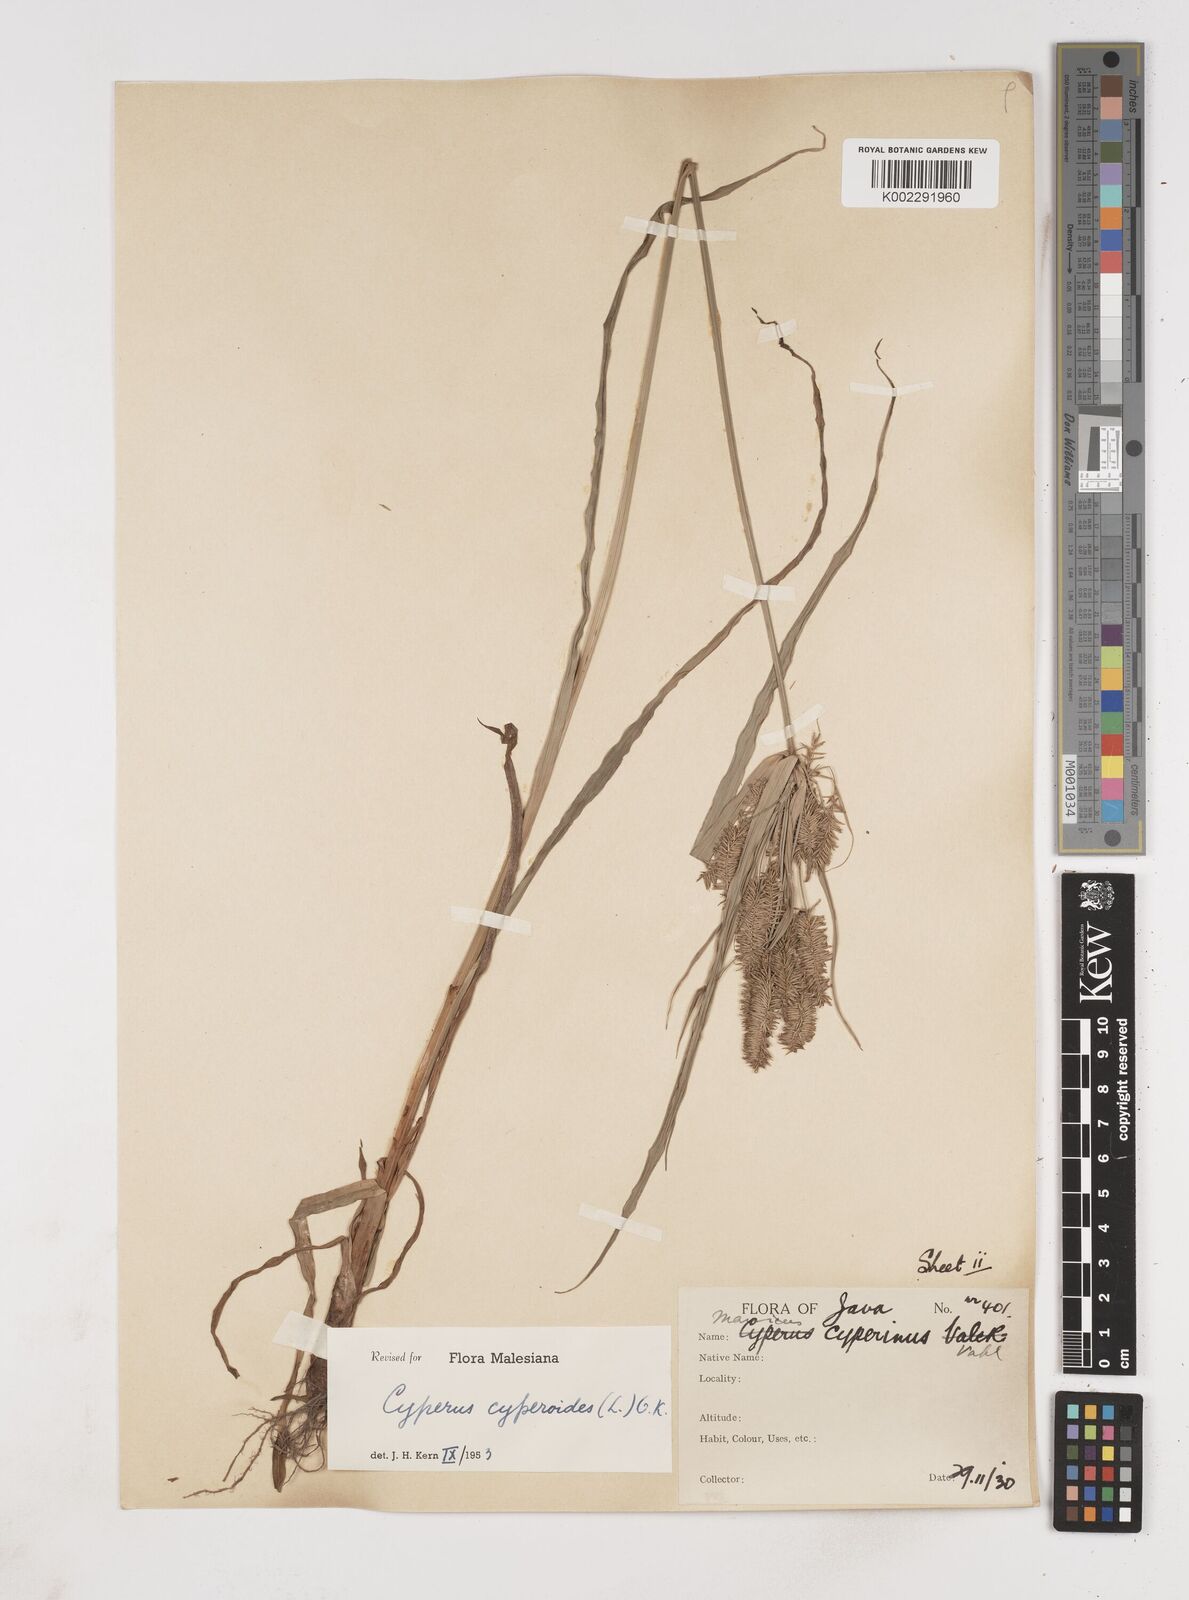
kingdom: Plantae
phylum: Tracheophyta
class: Liliopsida
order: Poales
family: Cyperaceae
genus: Cyperus
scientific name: Cyperus cyperoides
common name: Pacific island flat sedge
